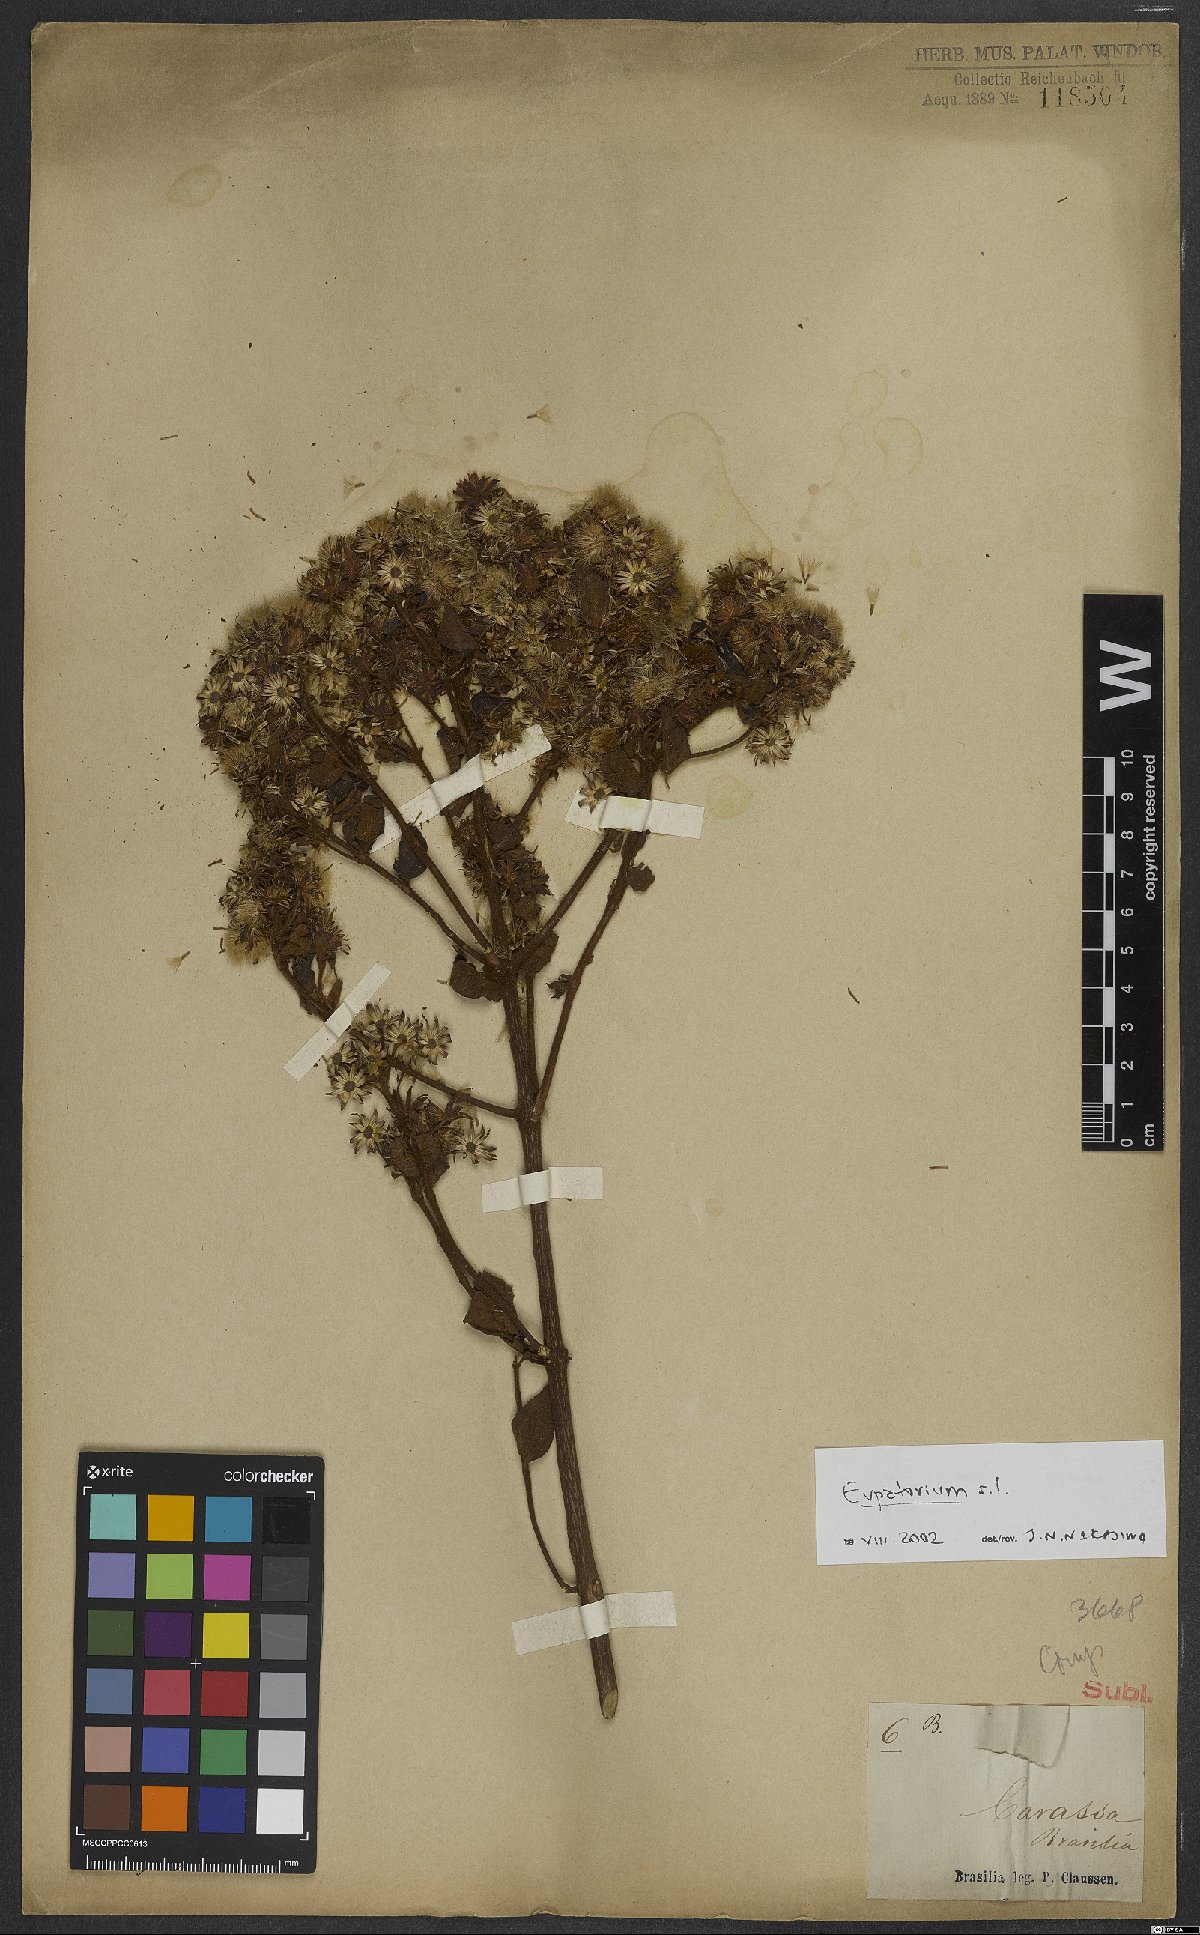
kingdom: Plantae
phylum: Tracheophyta
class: Magnoliopsida
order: Asterales
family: Asteraceae
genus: Eupatorium
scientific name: Eupatorium
